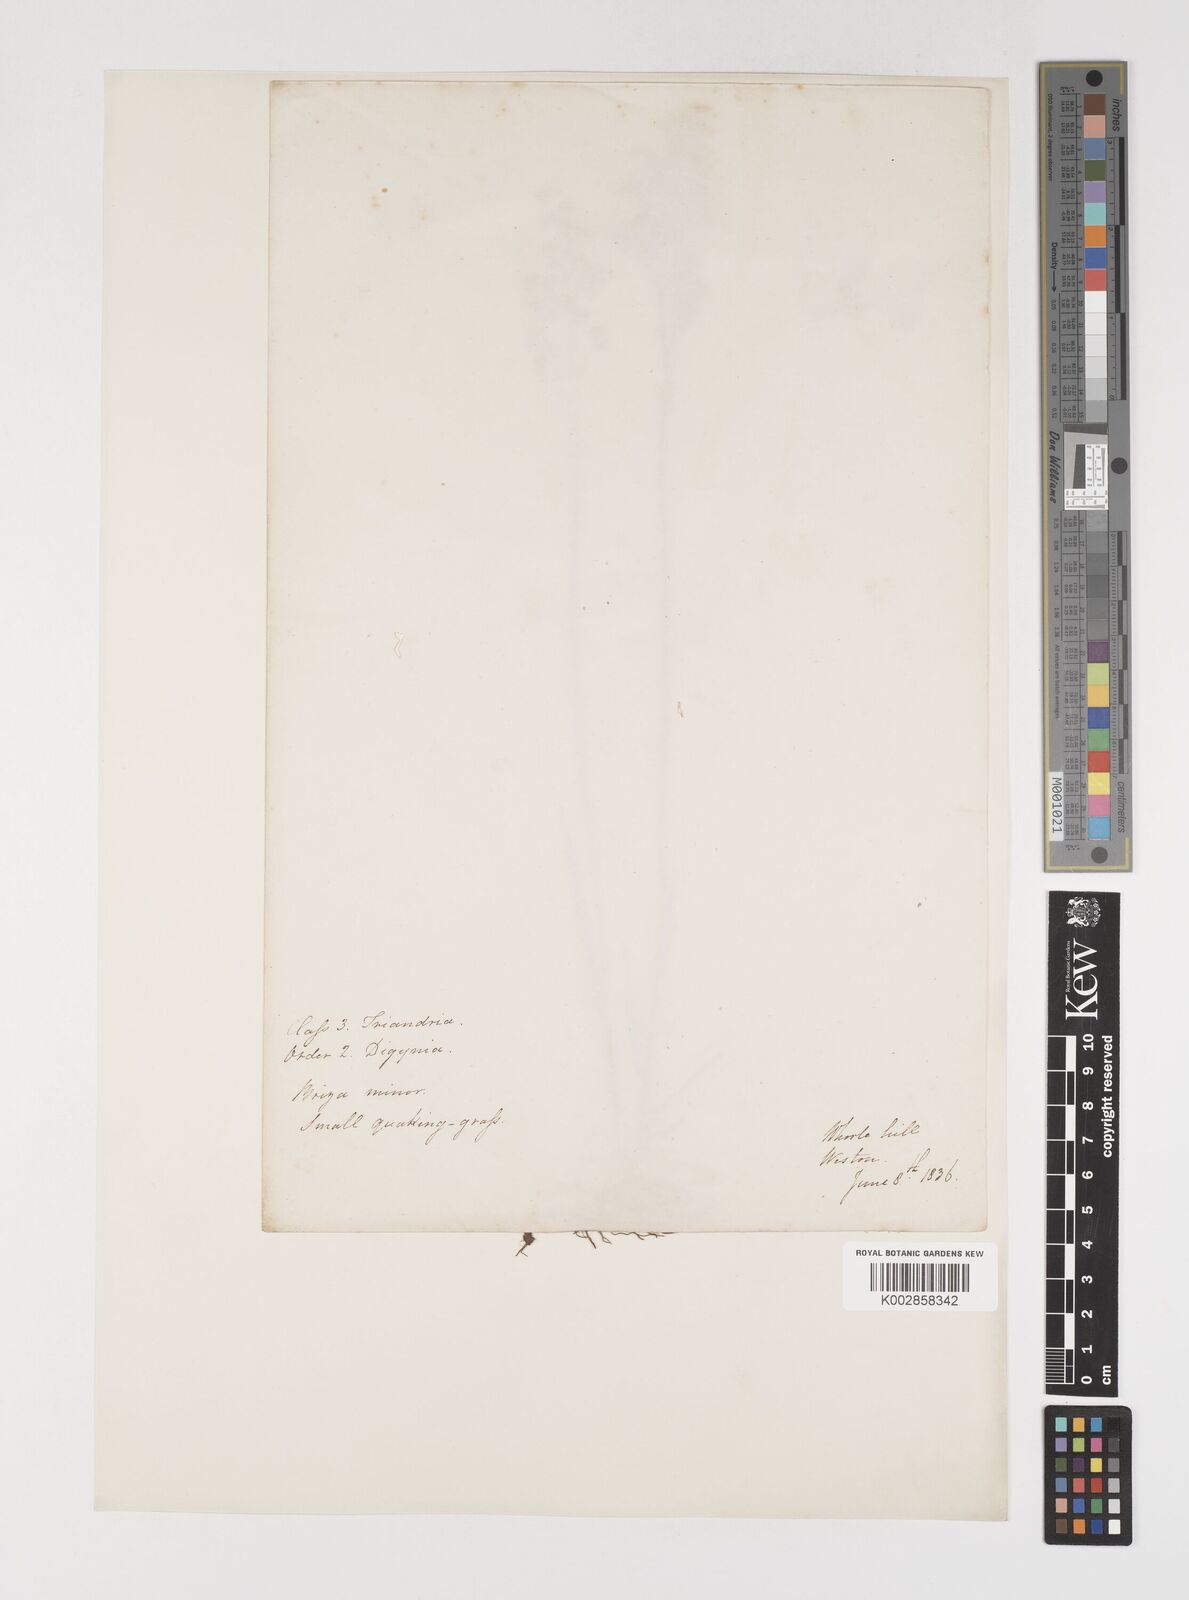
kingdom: Plantae
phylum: Tracheophyta
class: Liliopsida
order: Poales
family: Poaceae
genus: Briza
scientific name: Briza media
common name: Quaking grass
